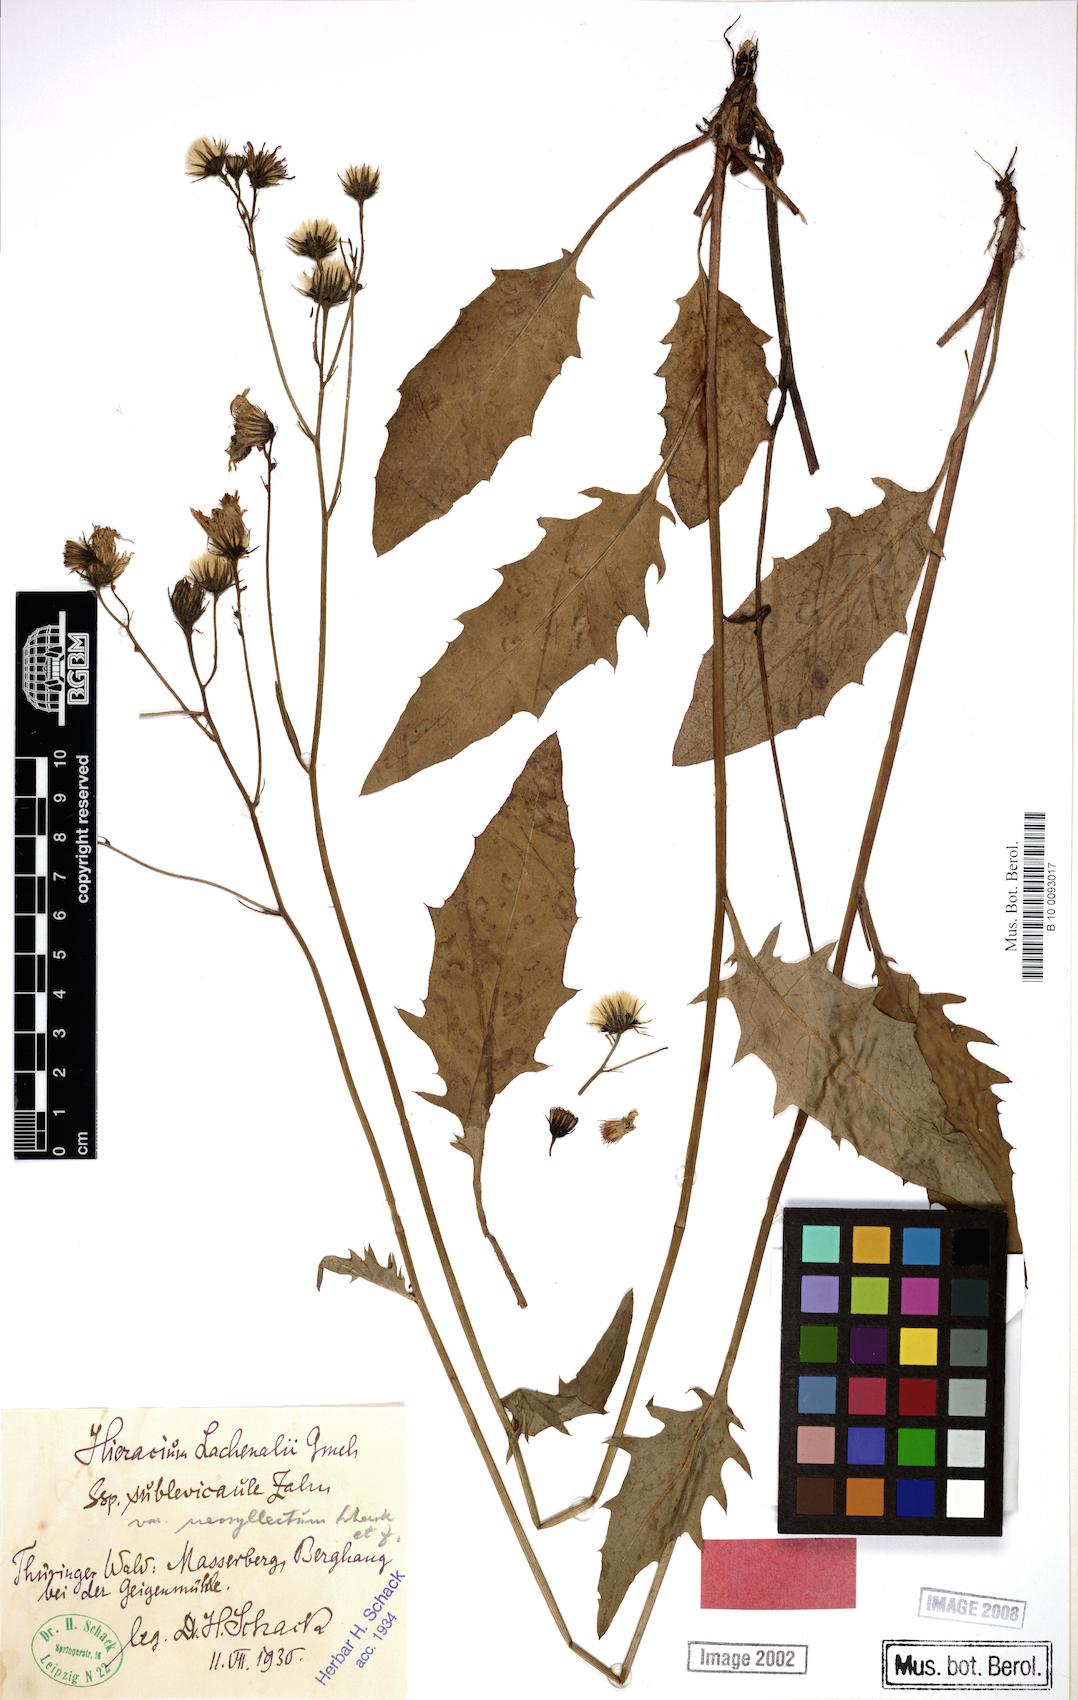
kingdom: Plantae
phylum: Tracheophyta
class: Magnoliopsida
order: Asterales
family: Asteraceae
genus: Hieracium
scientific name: Hieracium lachenalii
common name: Common hawkweed
